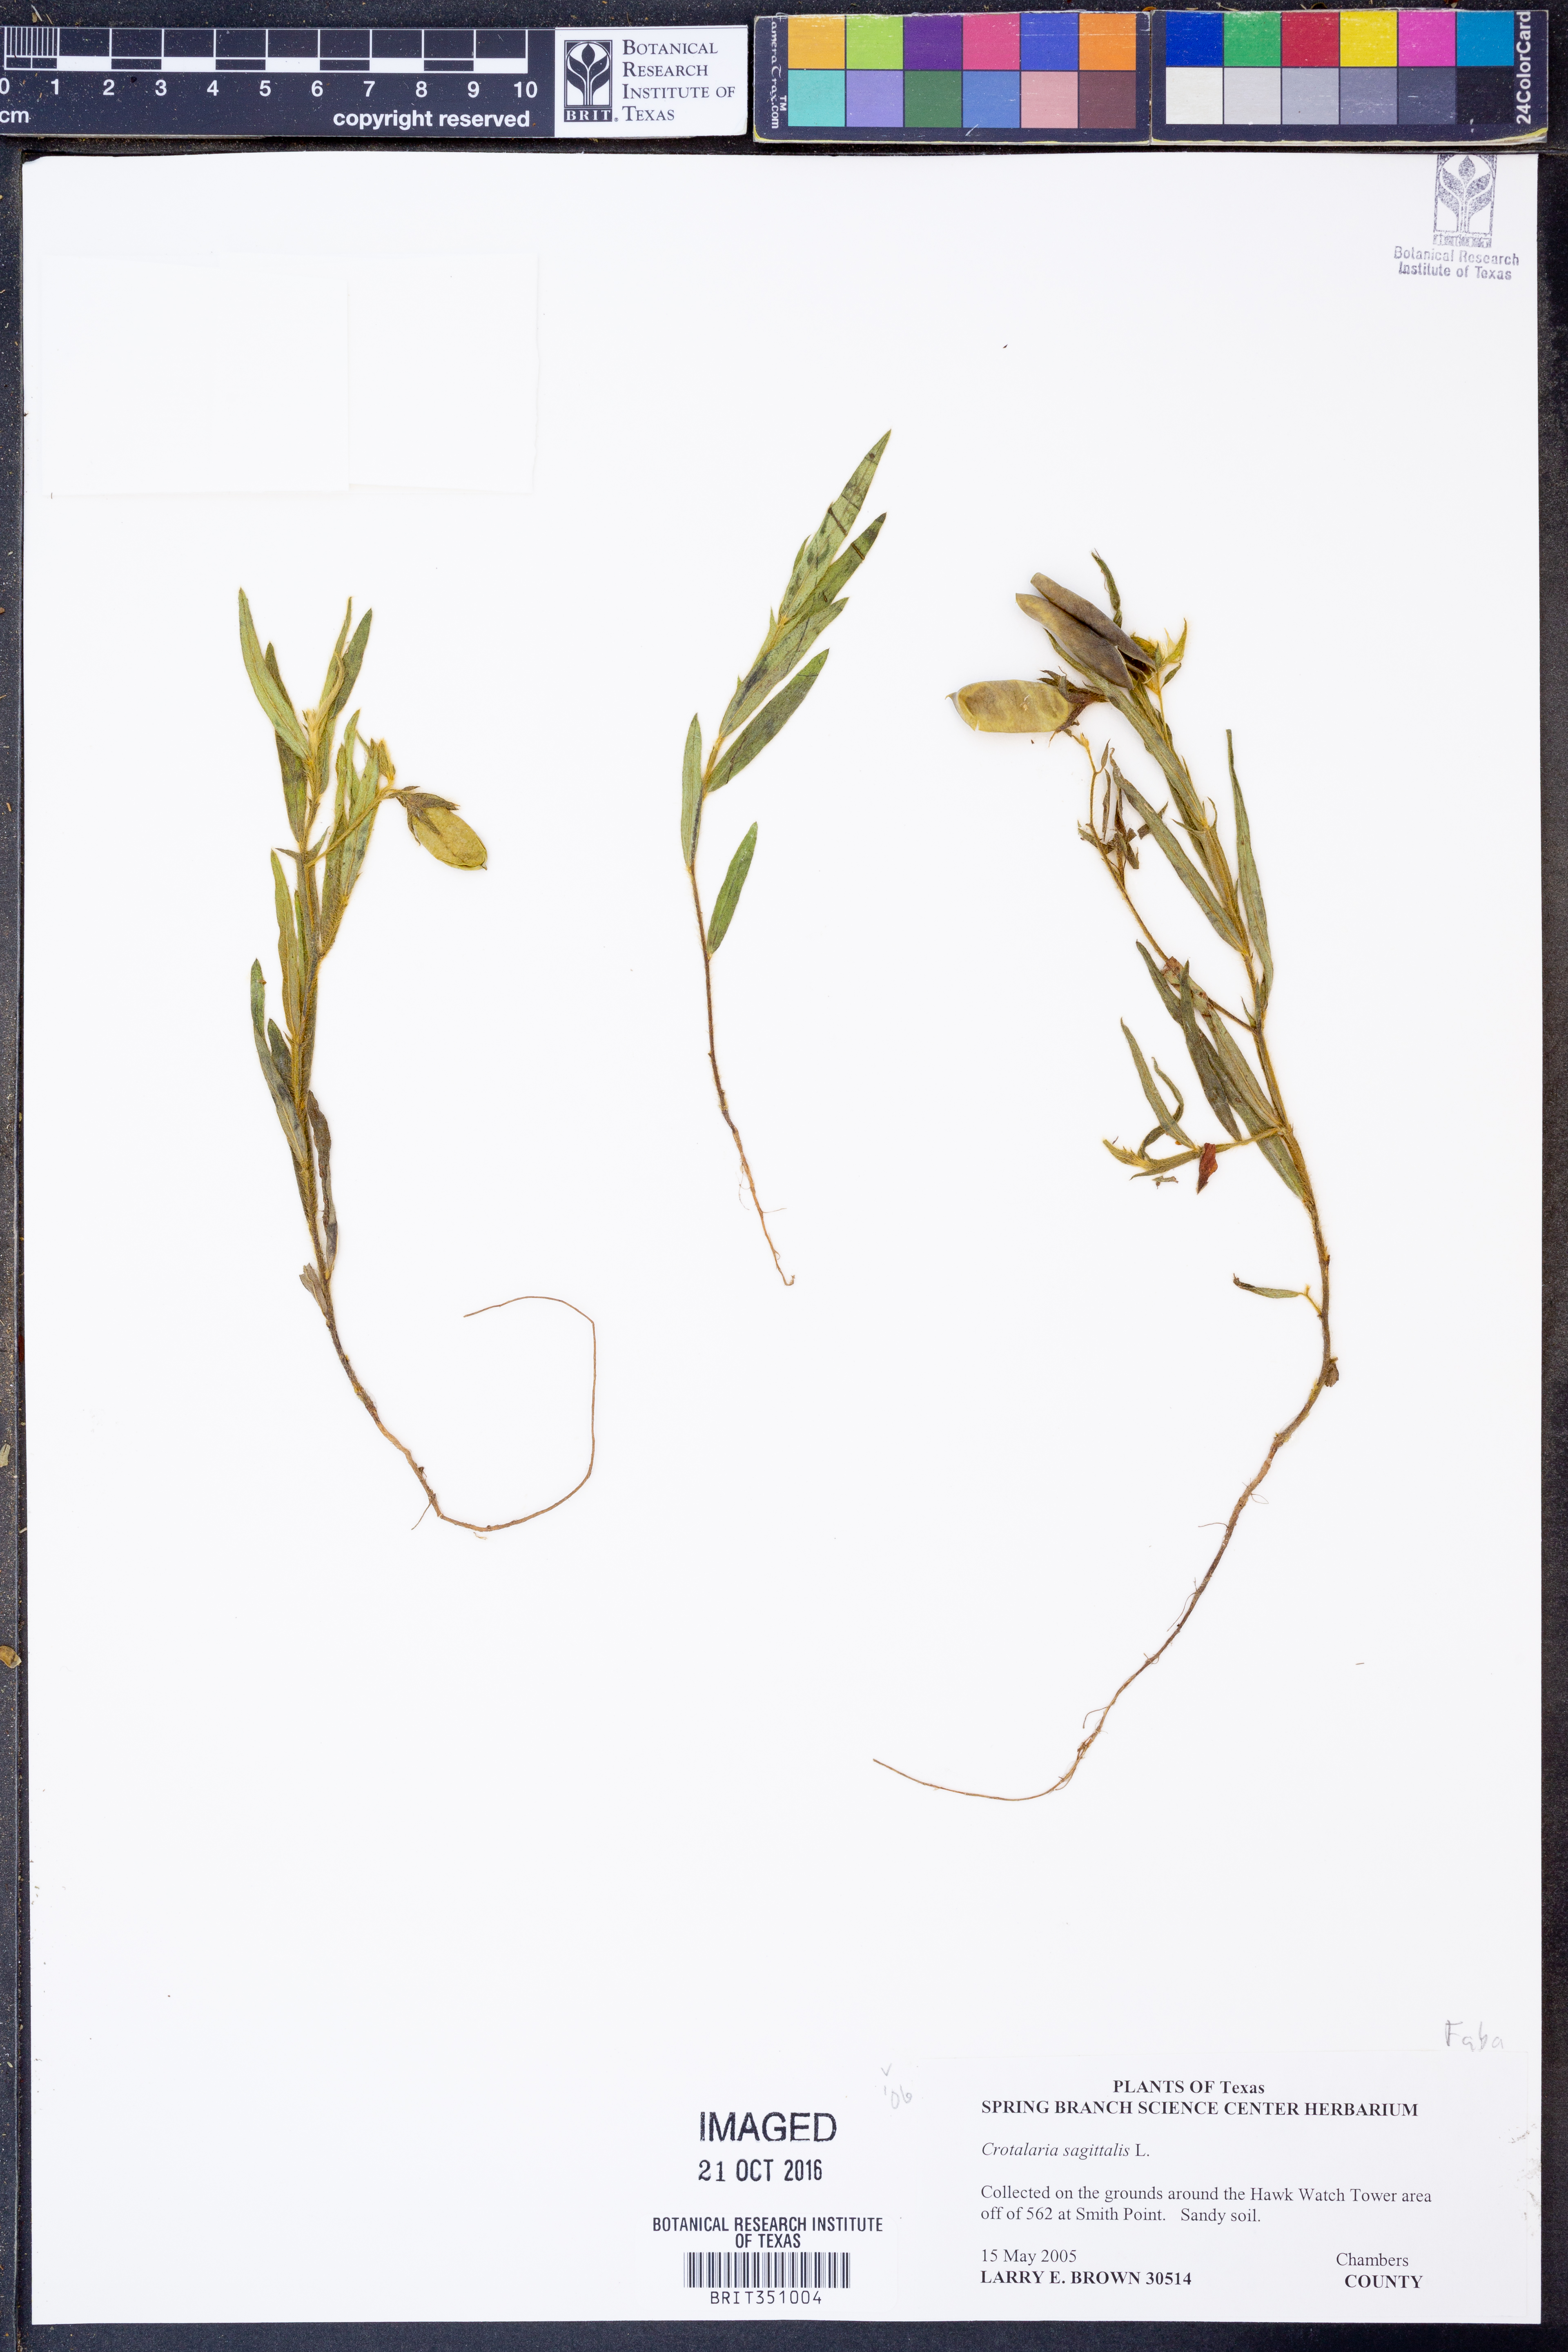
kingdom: Plantae
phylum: Tracheophyta
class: Magnoliopsida
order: Fabales
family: Fabaceae
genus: Crotalaria
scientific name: Crotalaria sagittalis
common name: Arrowhead rattlebox
